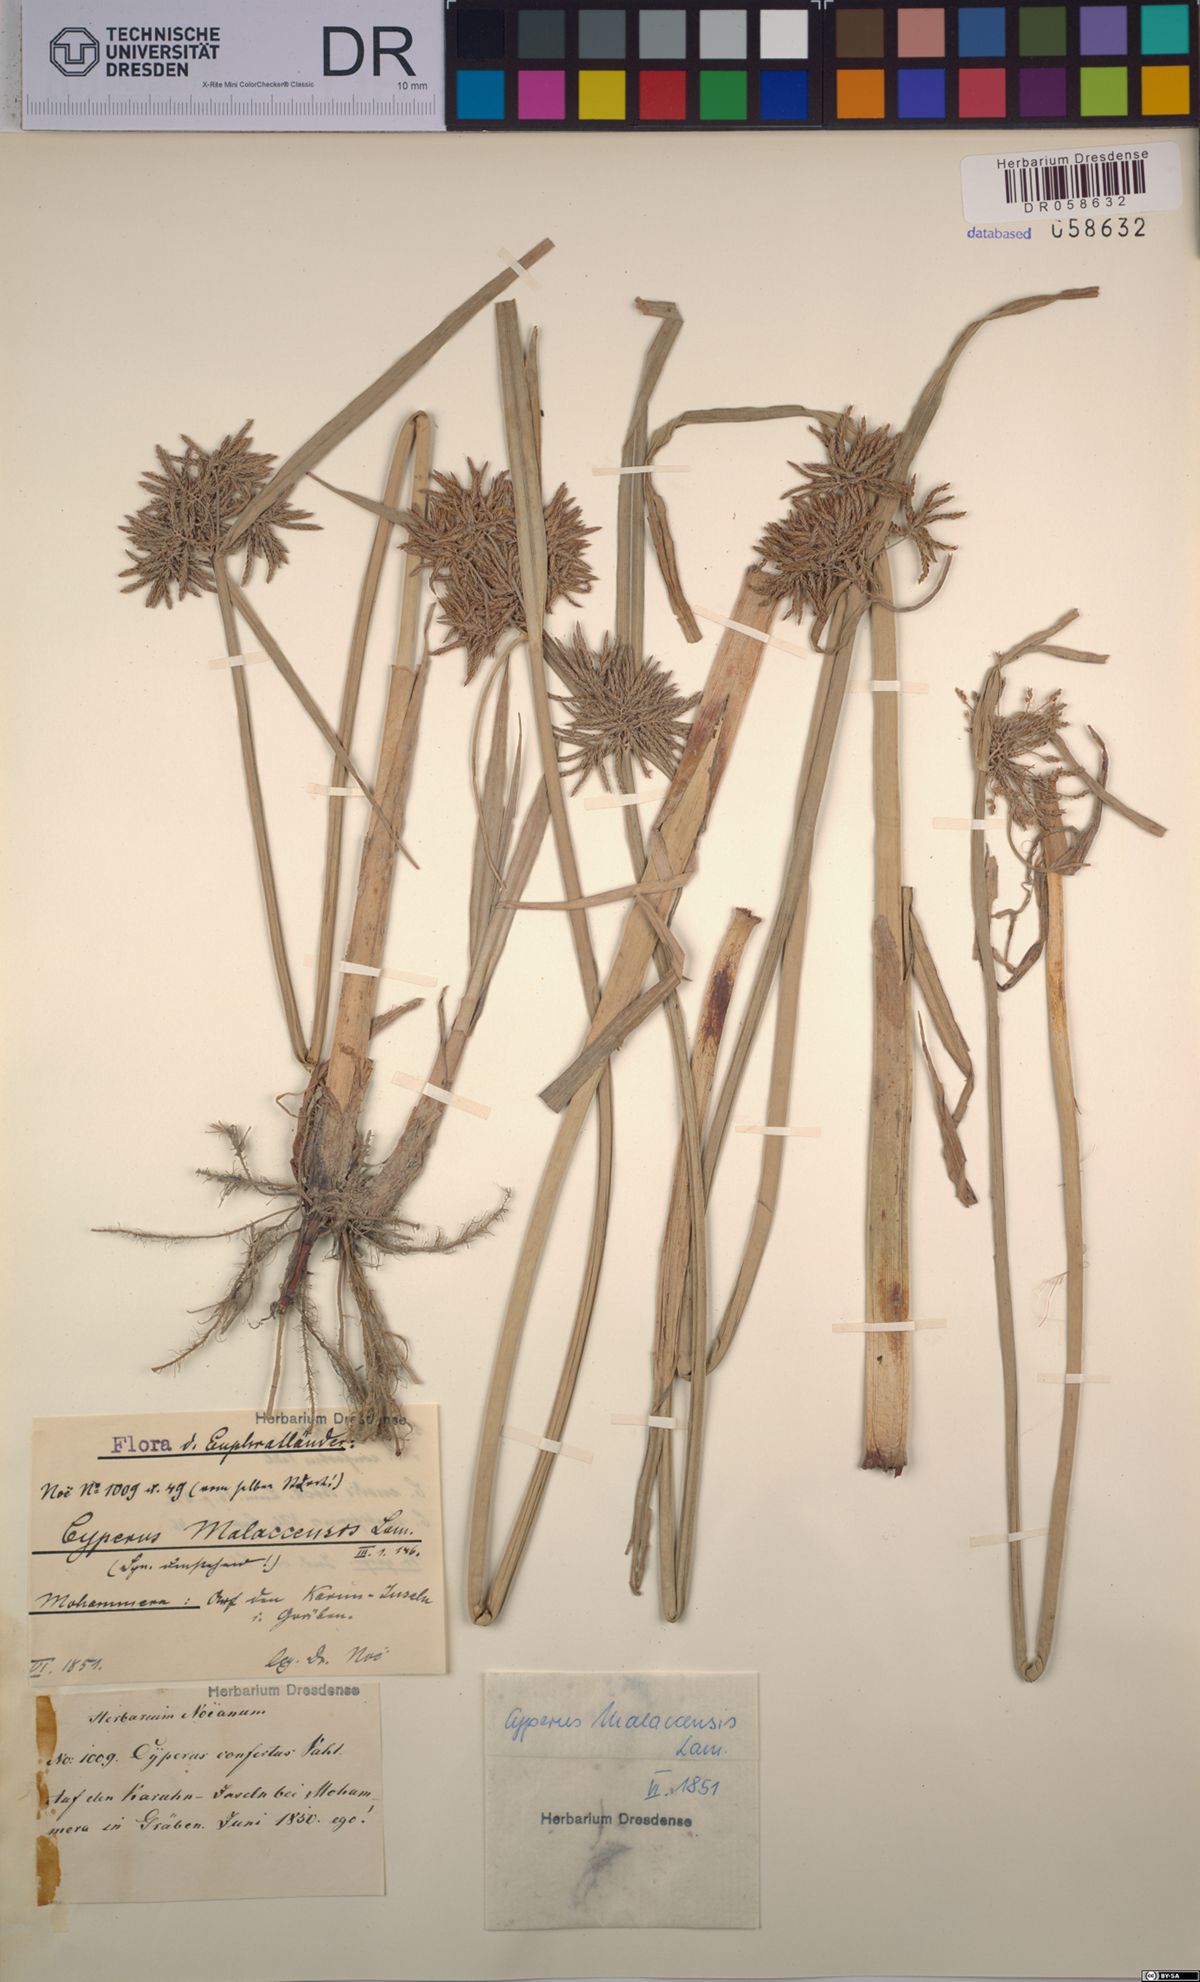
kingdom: Plantae
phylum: Tracheophyta
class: Liliopsida
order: Poales
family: Cyperaceae
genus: Cyperus
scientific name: Cyperus malaccensis
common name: Shichito matgrass
